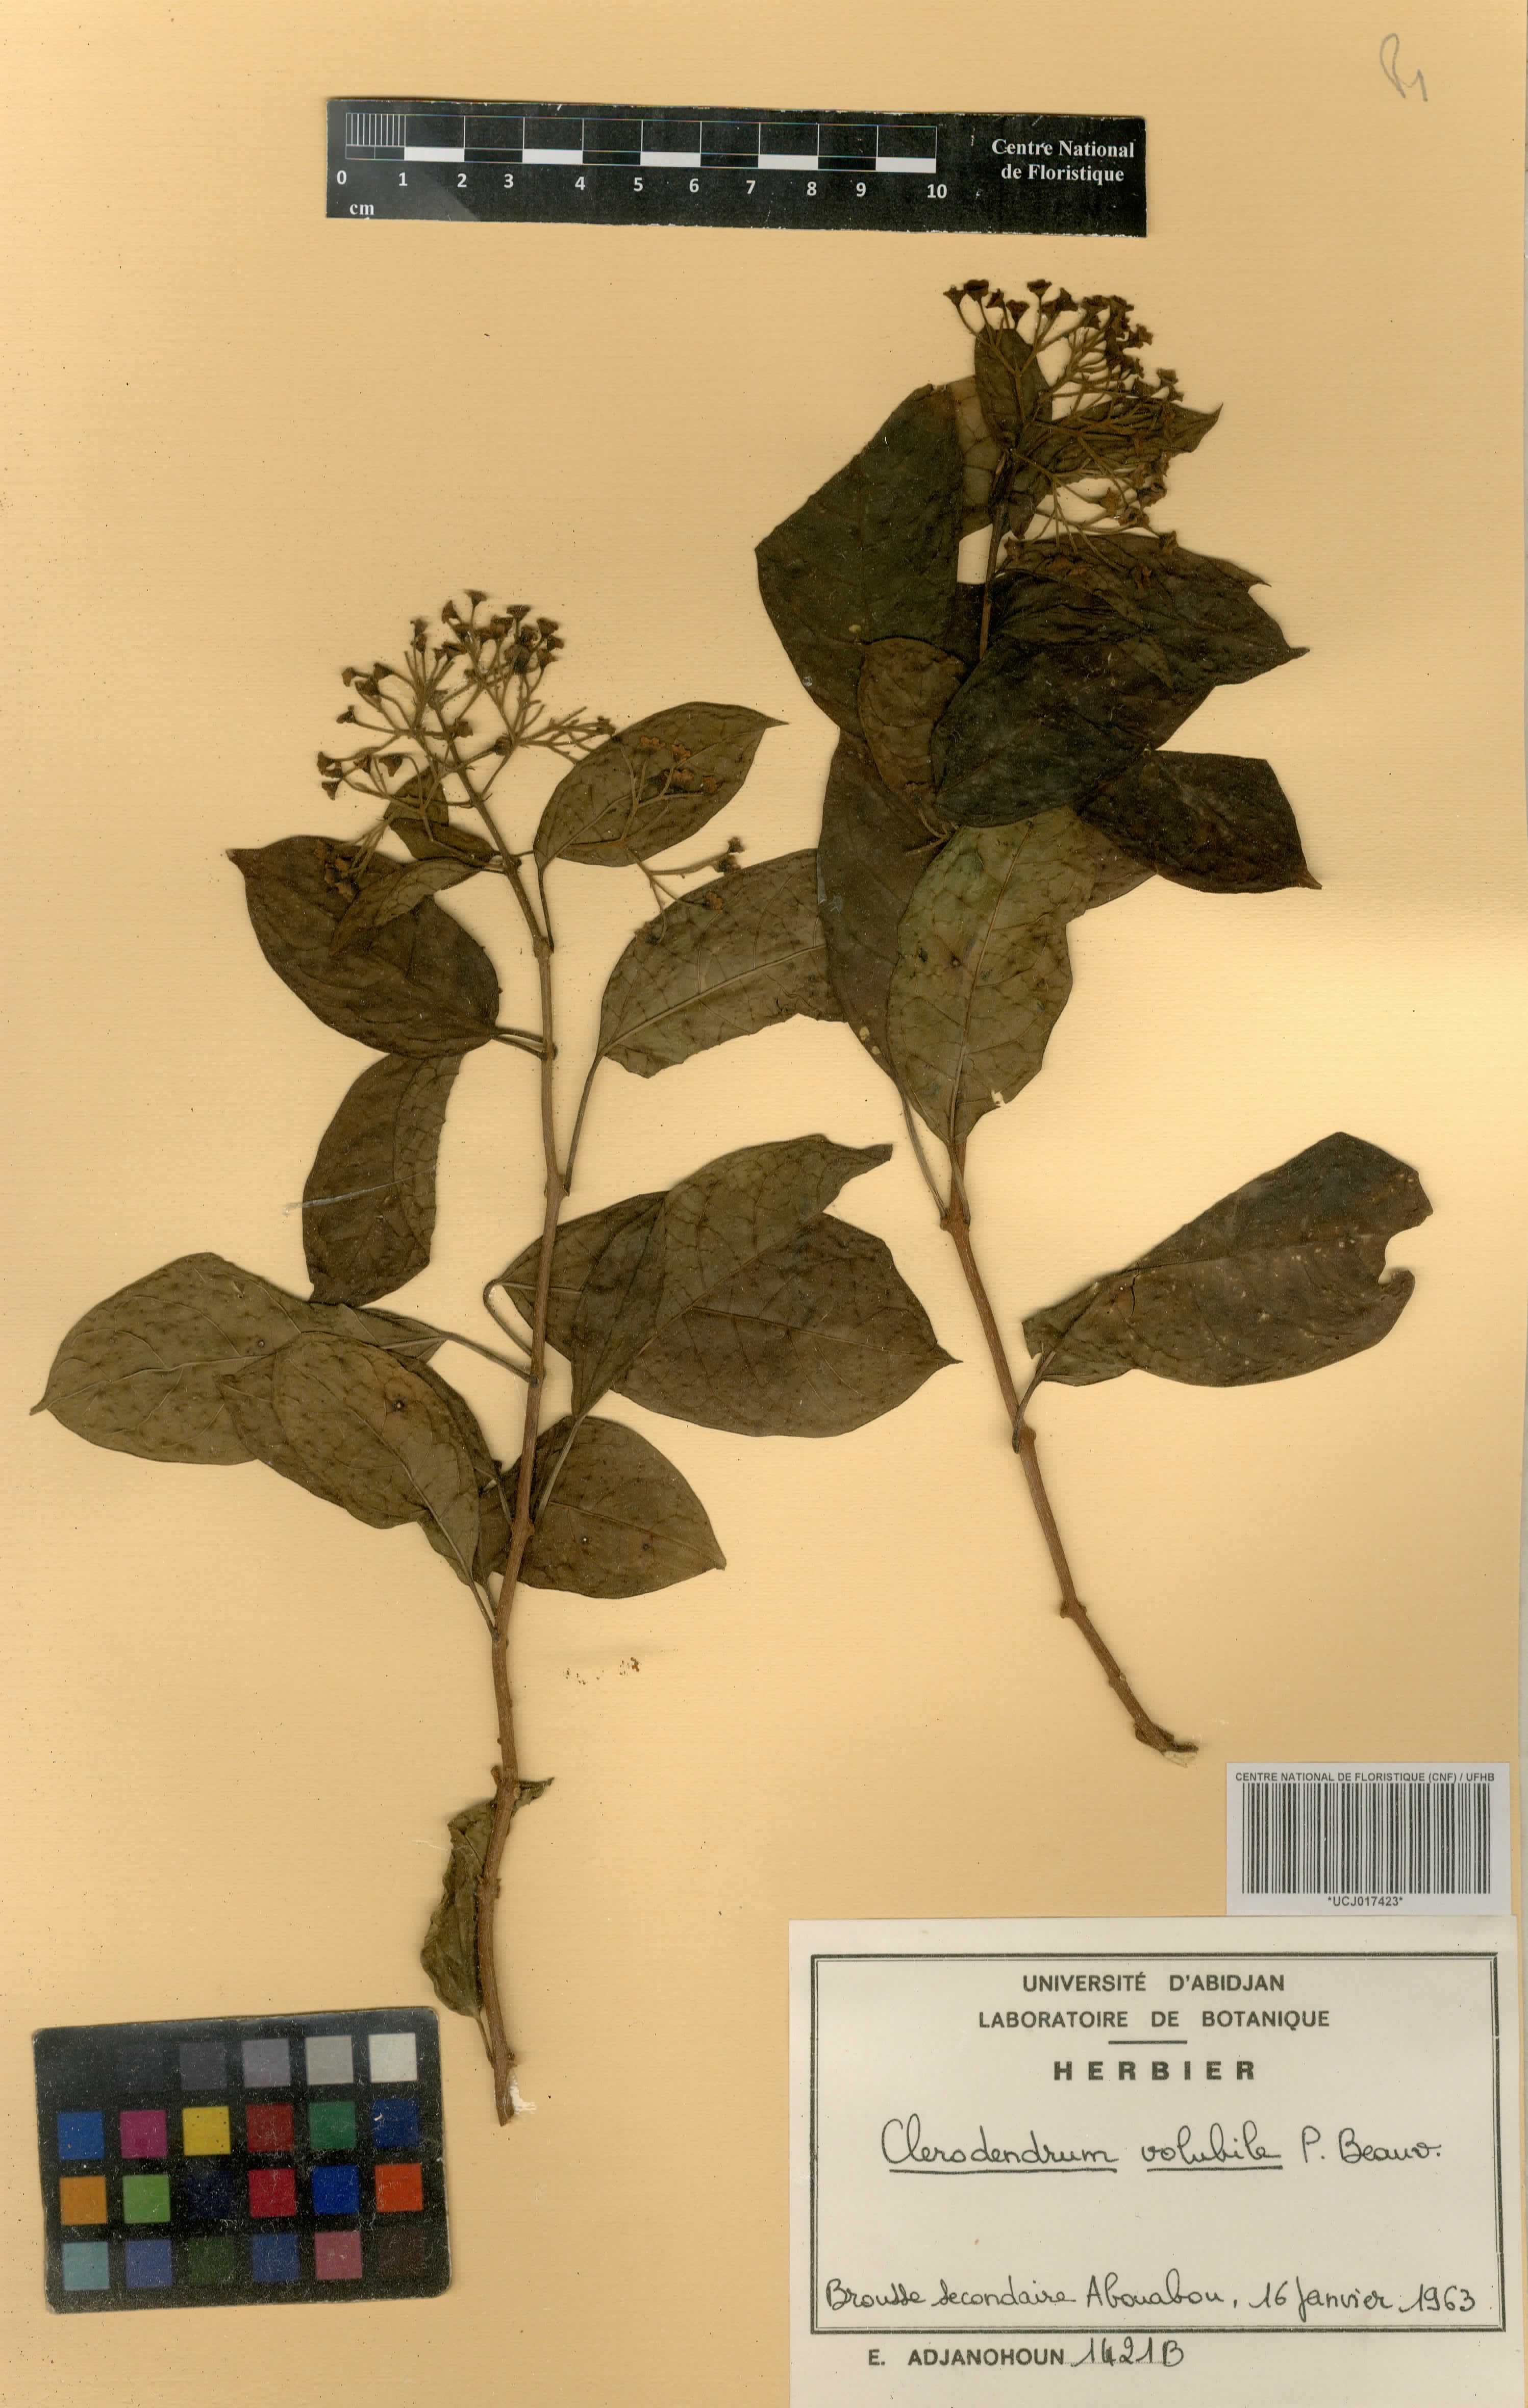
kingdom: Plantae
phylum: Tracheophyta
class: Magnoliopsida
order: Lamiales
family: Lamiaceae
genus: Clerodendrum
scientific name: Clerodendrum volubile
